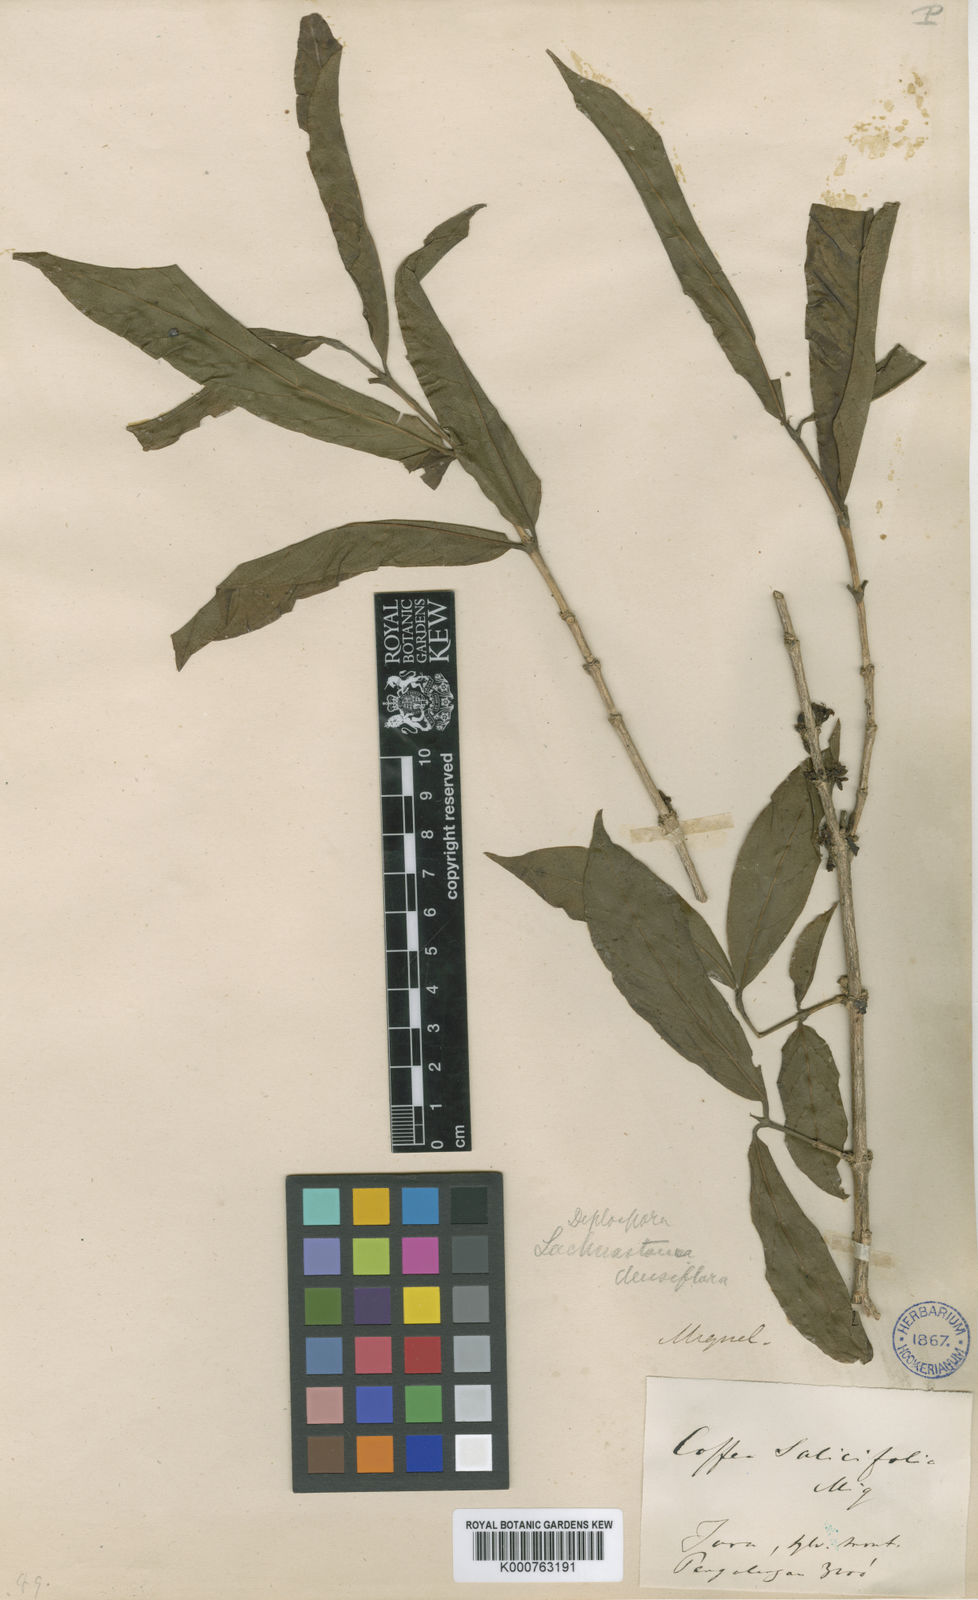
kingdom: Plantae
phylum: Tracheophyta
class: Magnoliopsida
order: Gentianales
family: Rubiaceae
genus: Nostolachma
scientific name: Nostolachma densiflora
